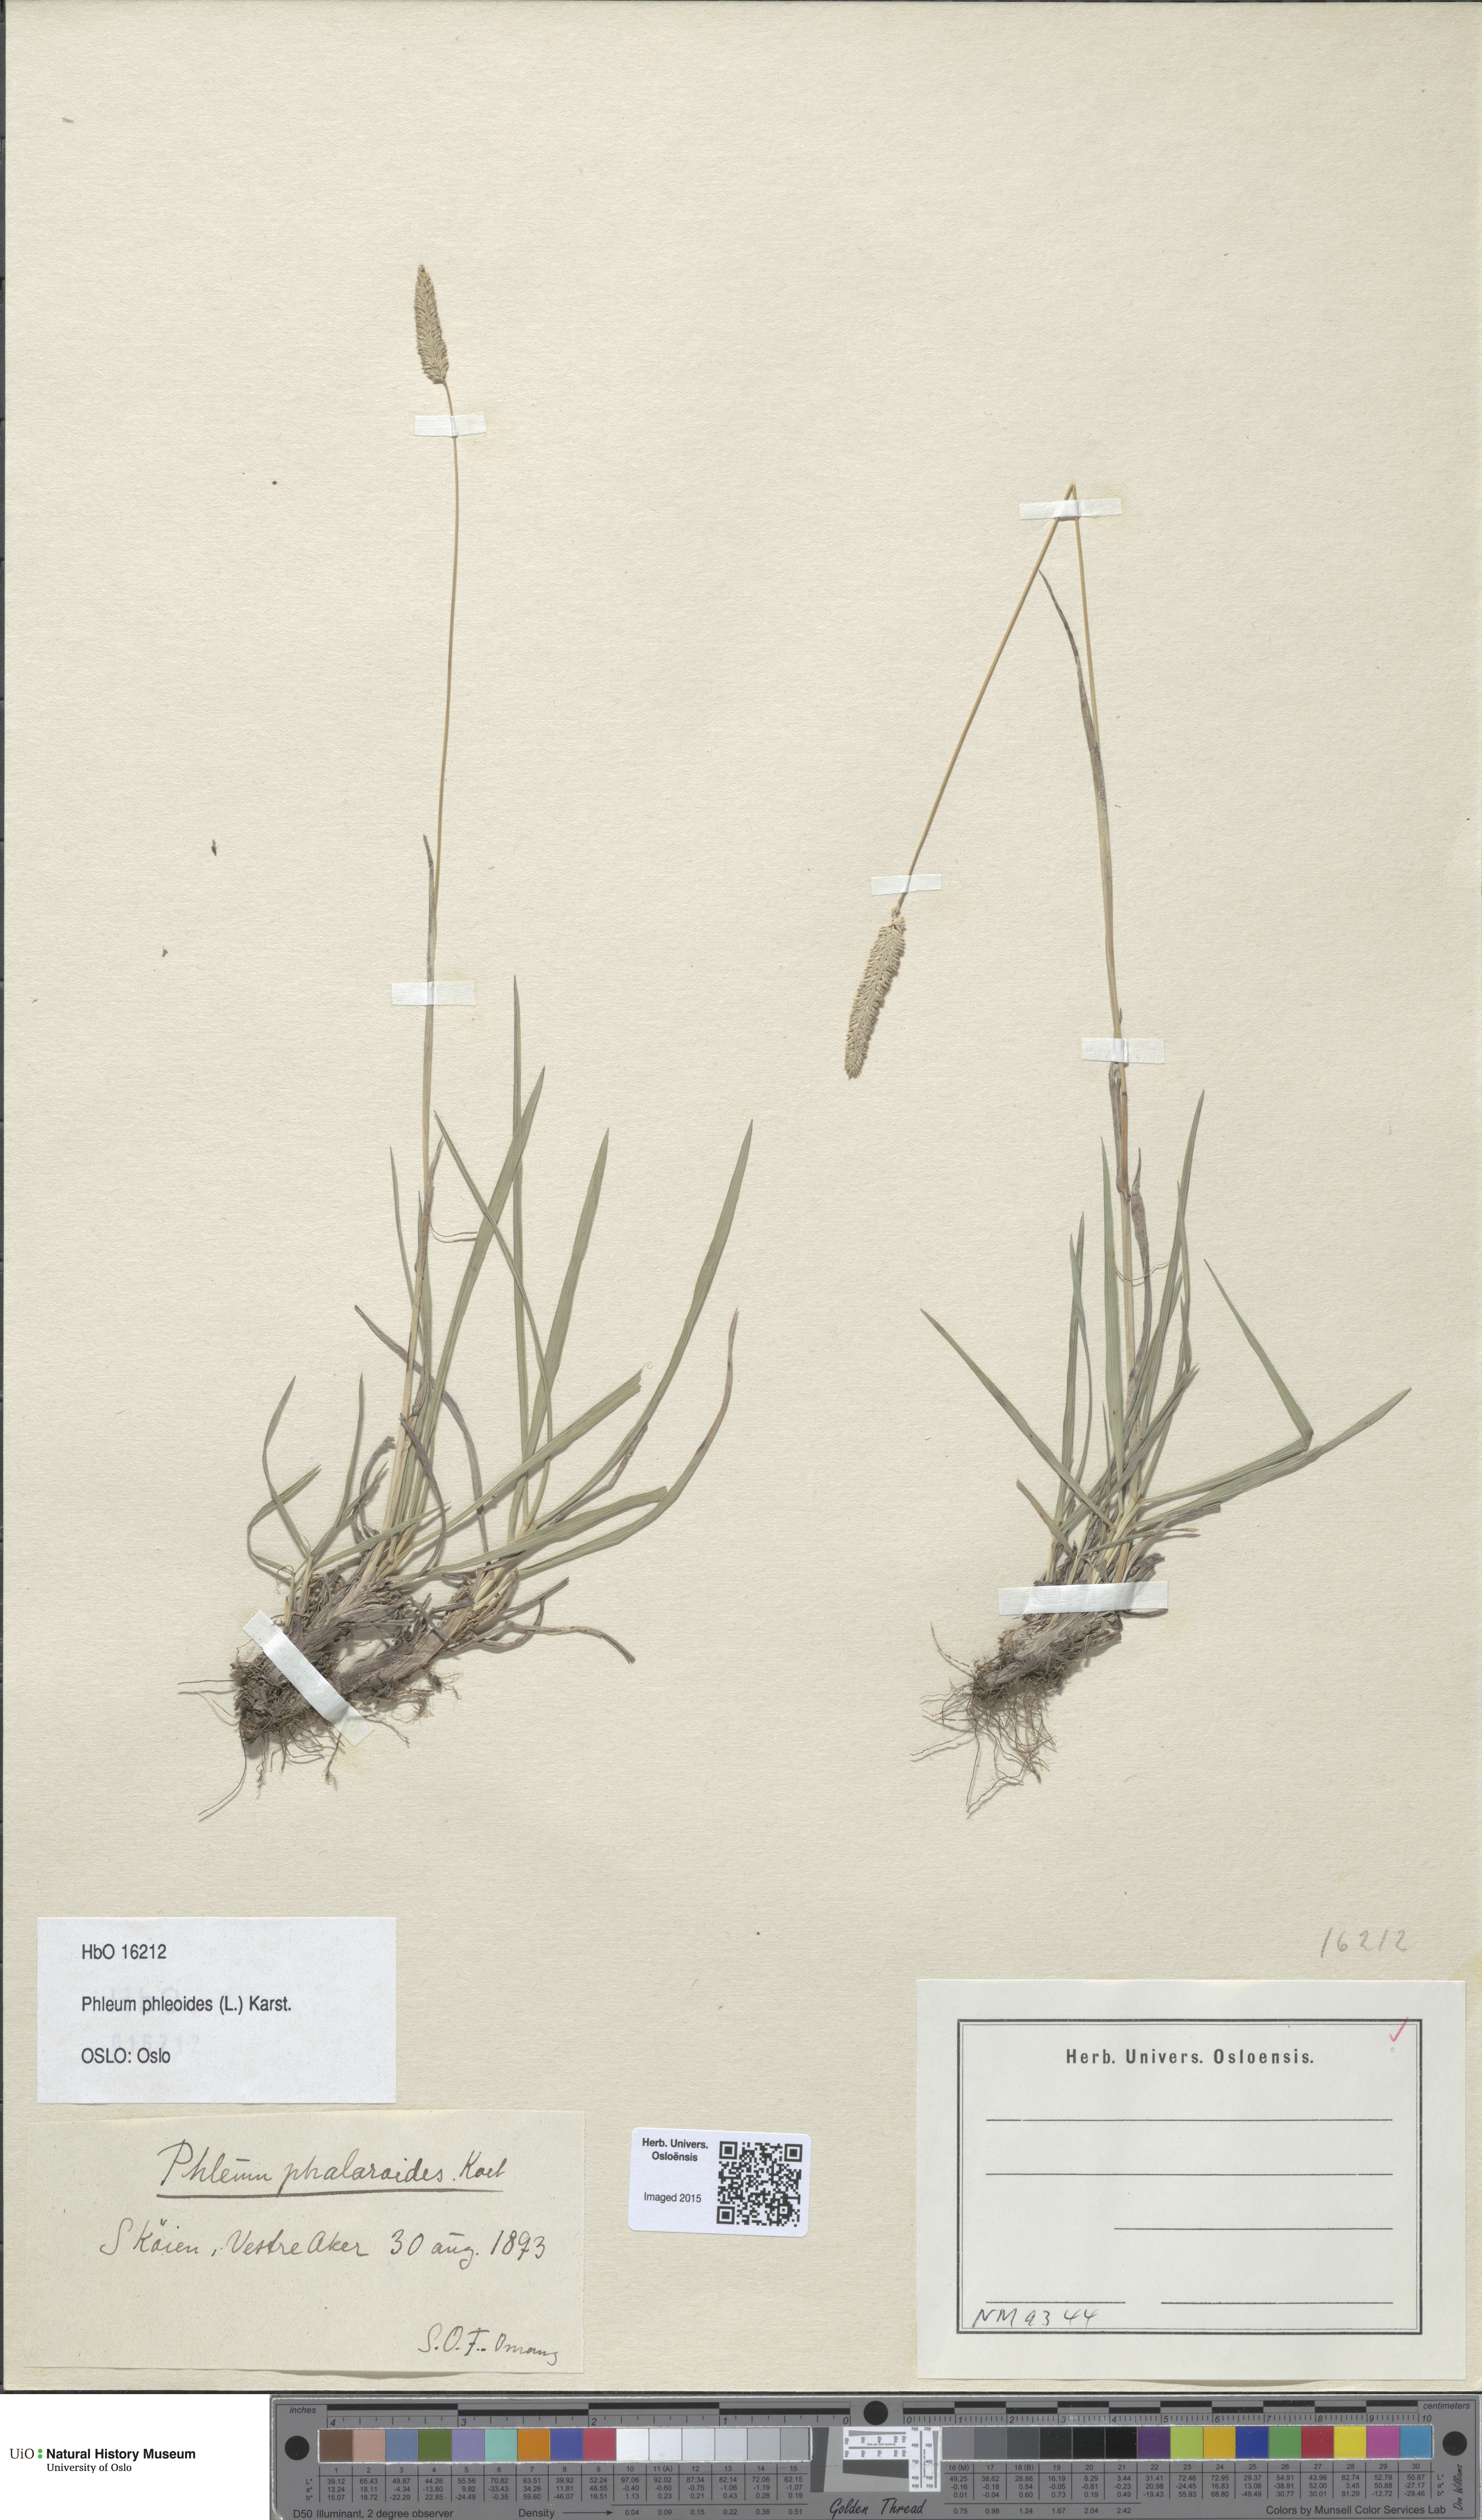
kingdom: Plantae
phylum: Tracheophyta
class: Liliopsida
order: Poales
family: Poaceae
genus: Phleum
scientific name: Phleum phleoides
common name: Purple-stem cat's-tail
